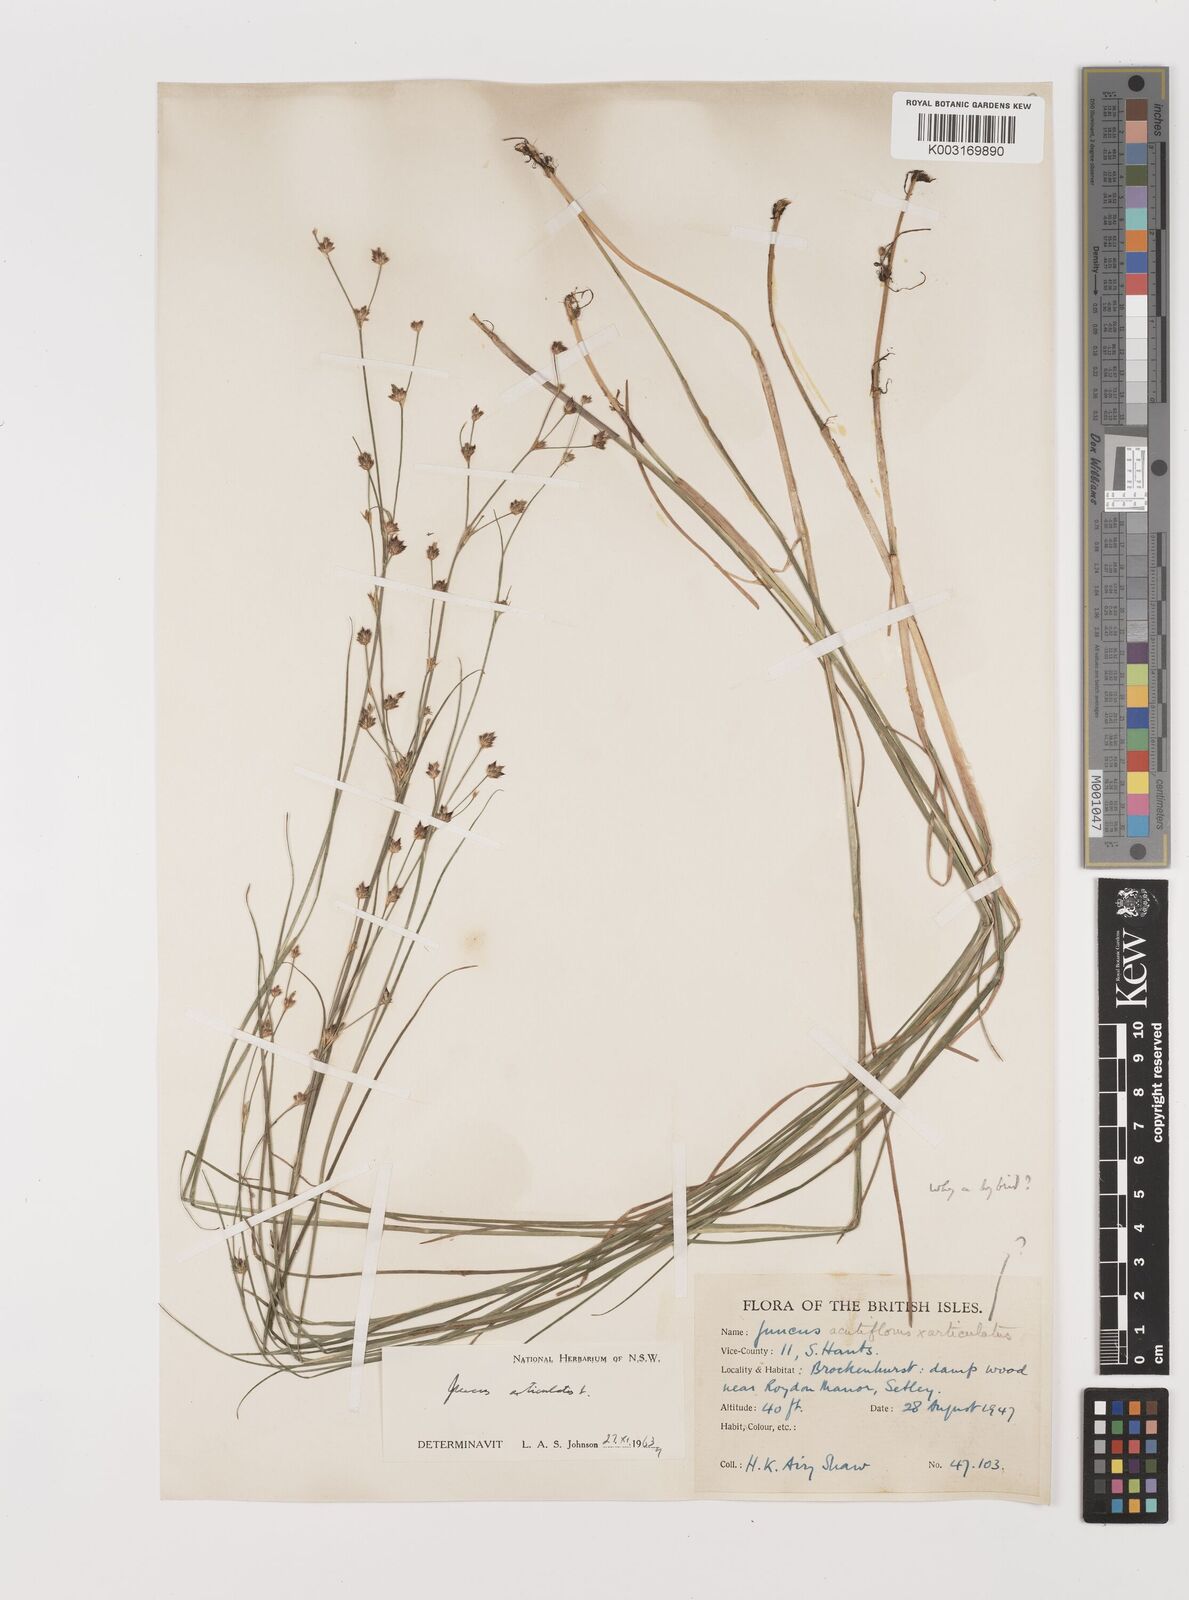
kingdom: Plantae
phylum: Tracheophyta
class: Liliopsida
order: Poales
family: Juncaceae
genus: Juncus
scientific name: Juncus articulatus
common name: Jointed rush
